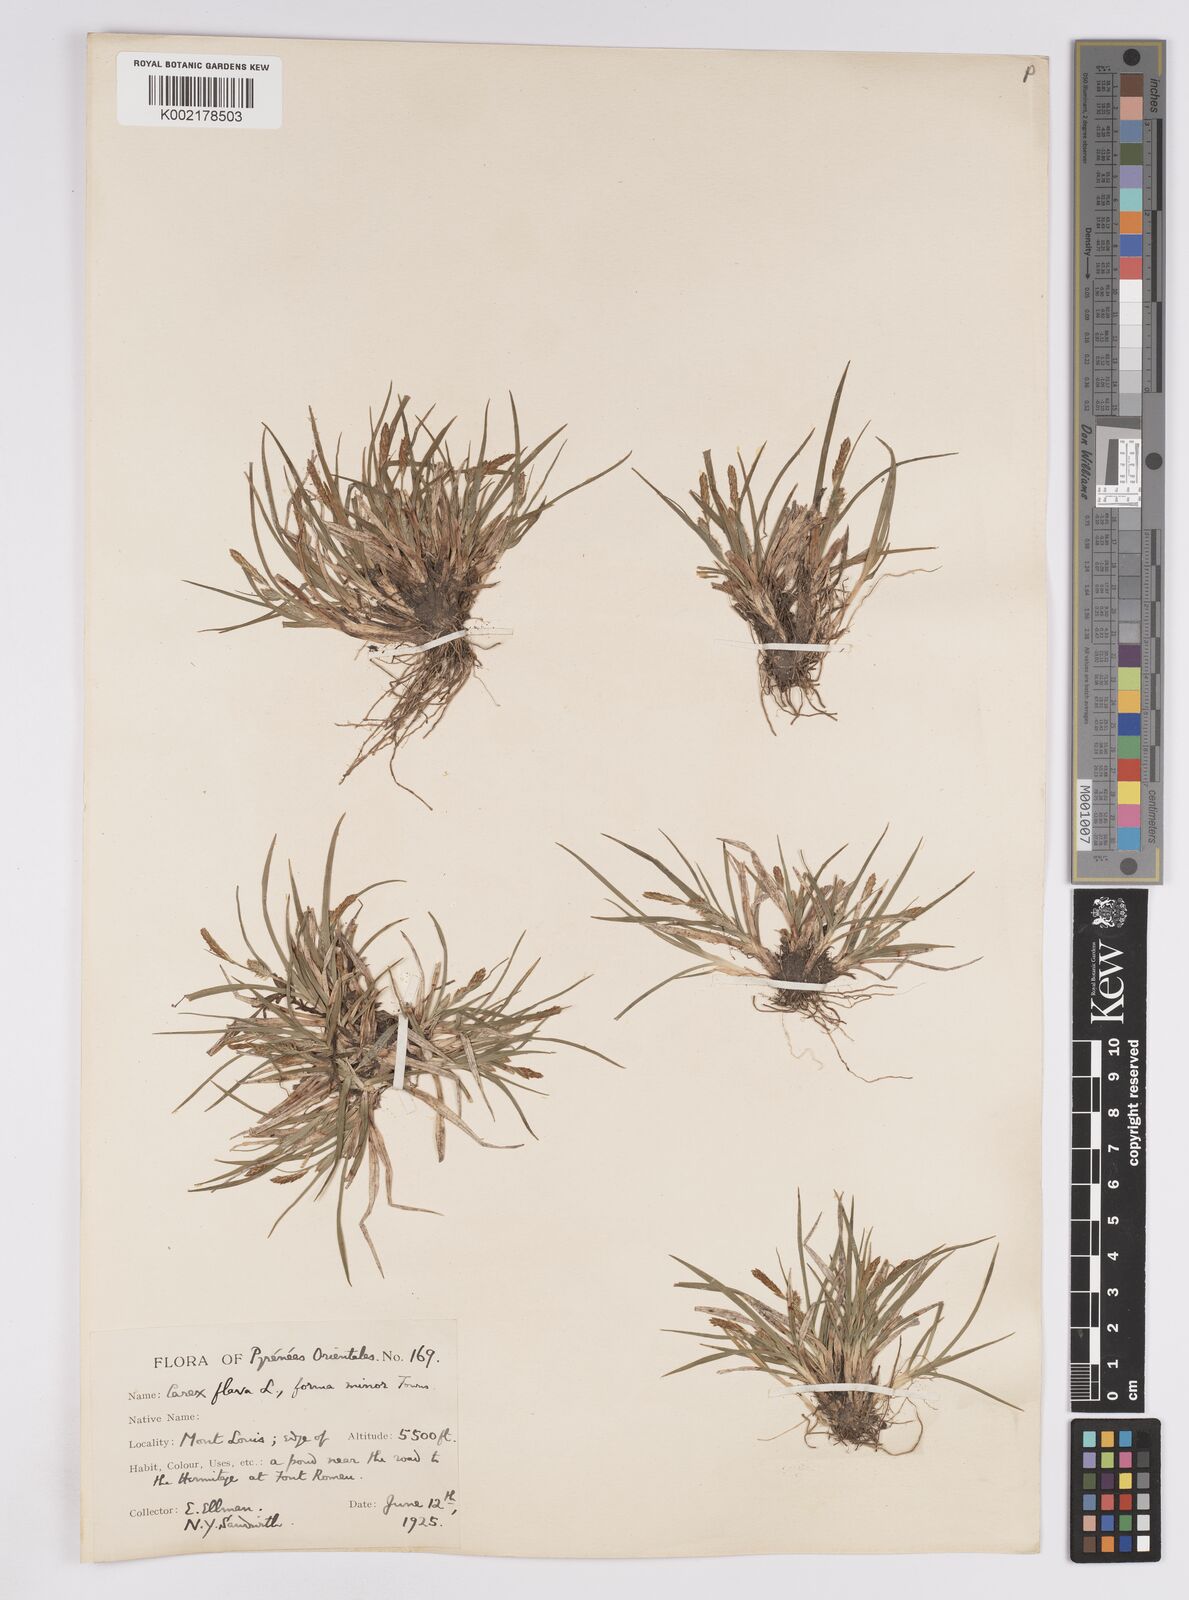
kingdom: Plantae
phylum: Tracheophyta
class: Liliopsida
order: Poales
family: Cyperaceae
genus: Carex
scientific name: Carex demissa
